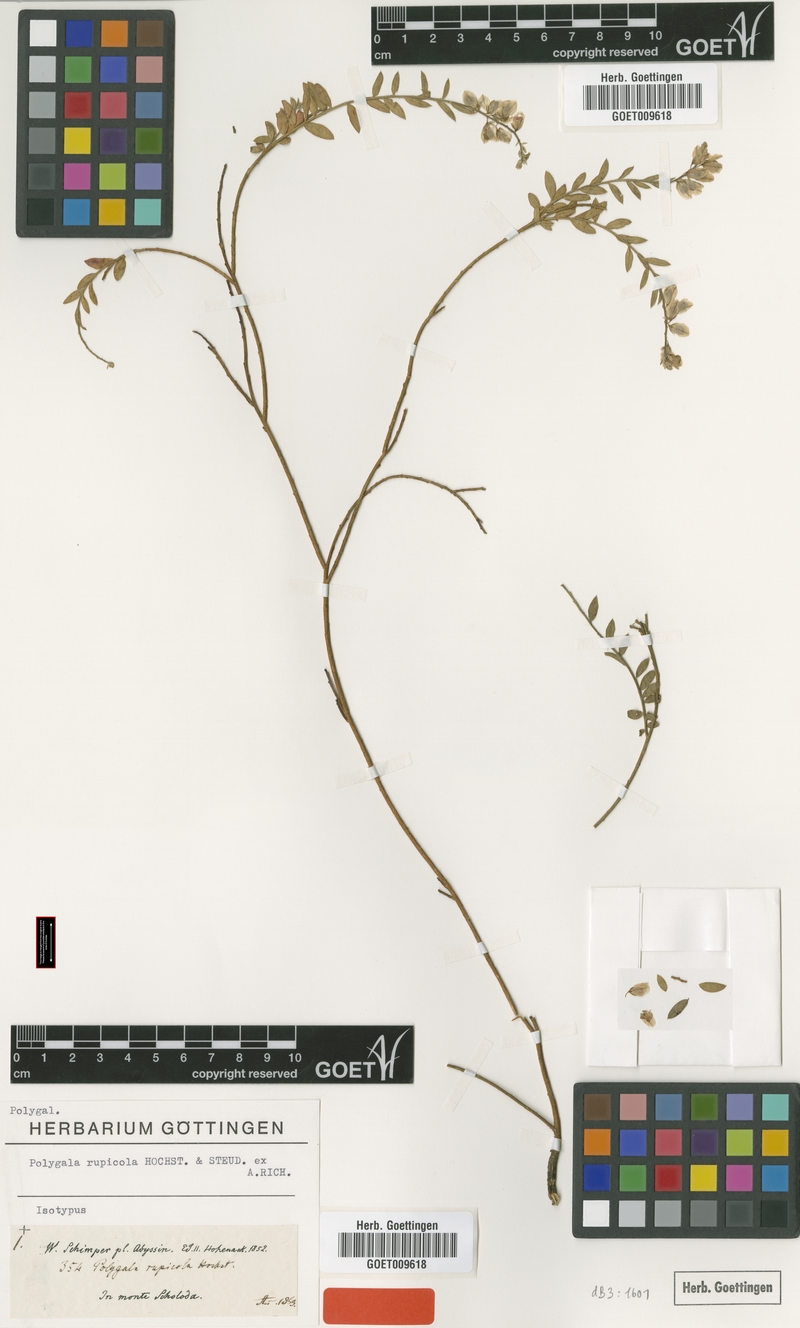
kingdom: Plantae
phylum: Tracheophyta
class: Magnoliopsida
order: Fabales
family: Polygalaceae
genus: Polygala
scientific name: Polygala rupicola
